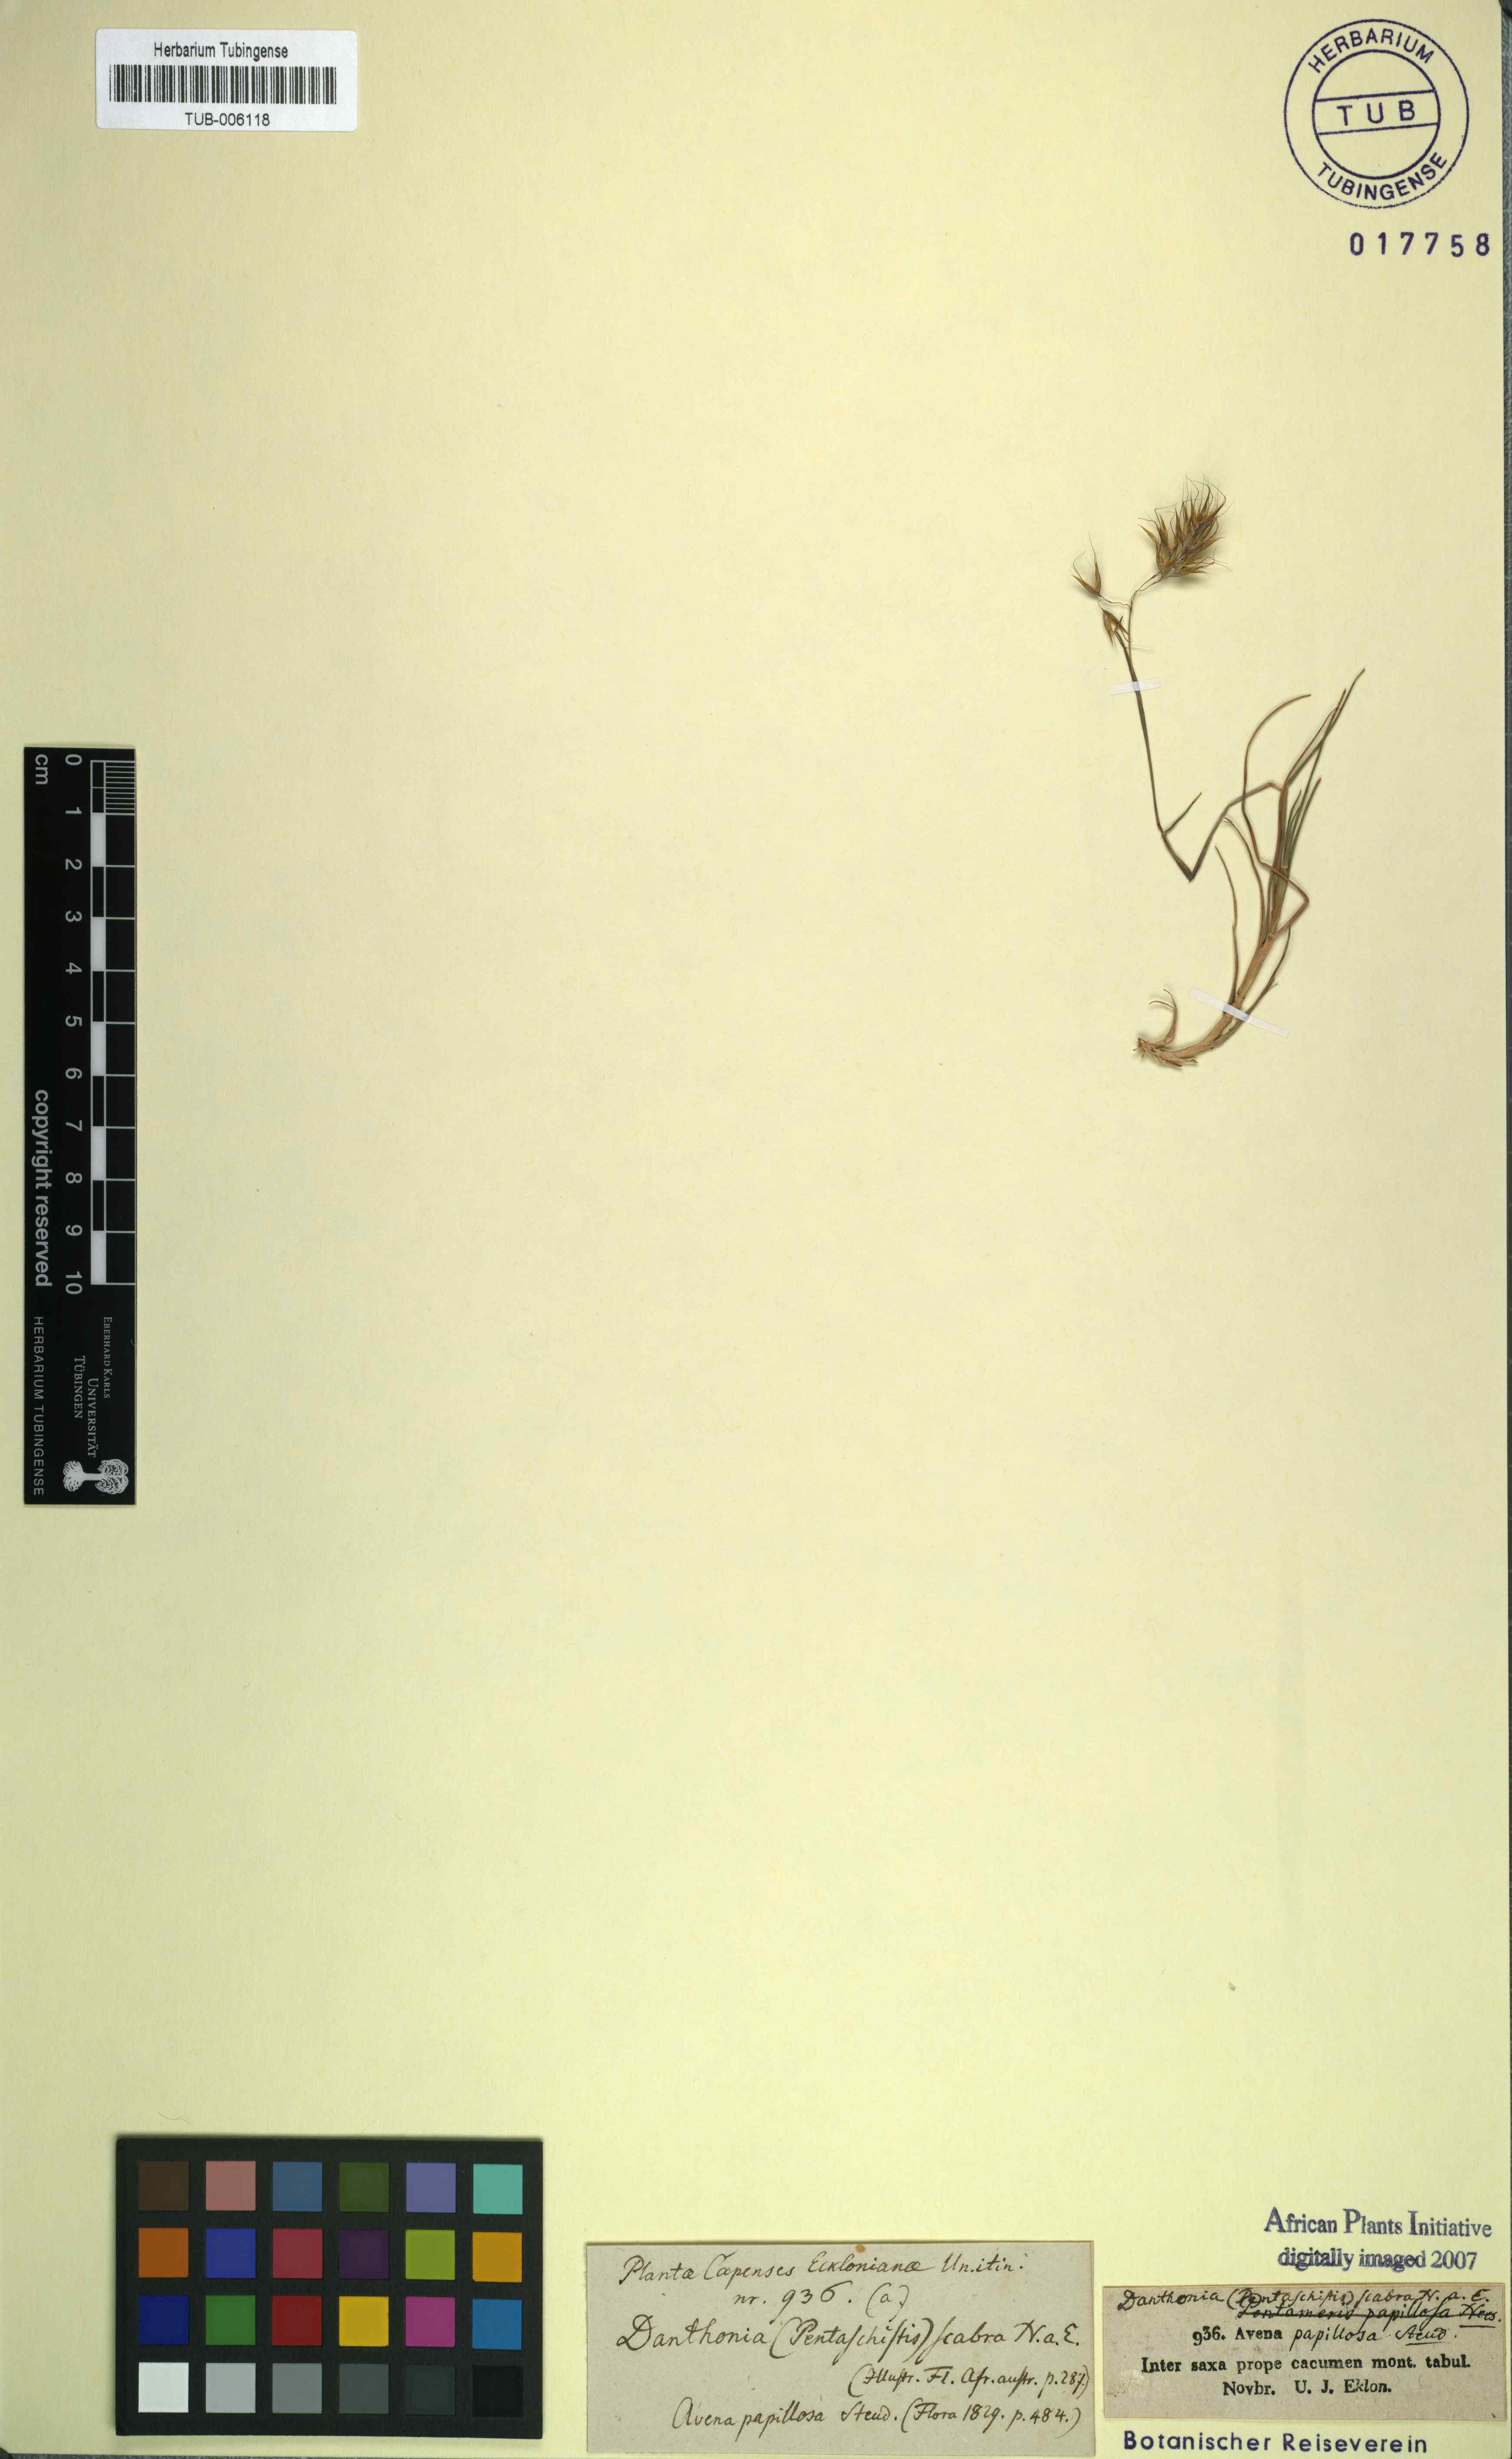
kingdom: Plantae
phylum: Tracheophyta
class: Liliopsida
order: Poales
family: Poaceae
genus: Pentameris
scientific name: Pentameris scabra
